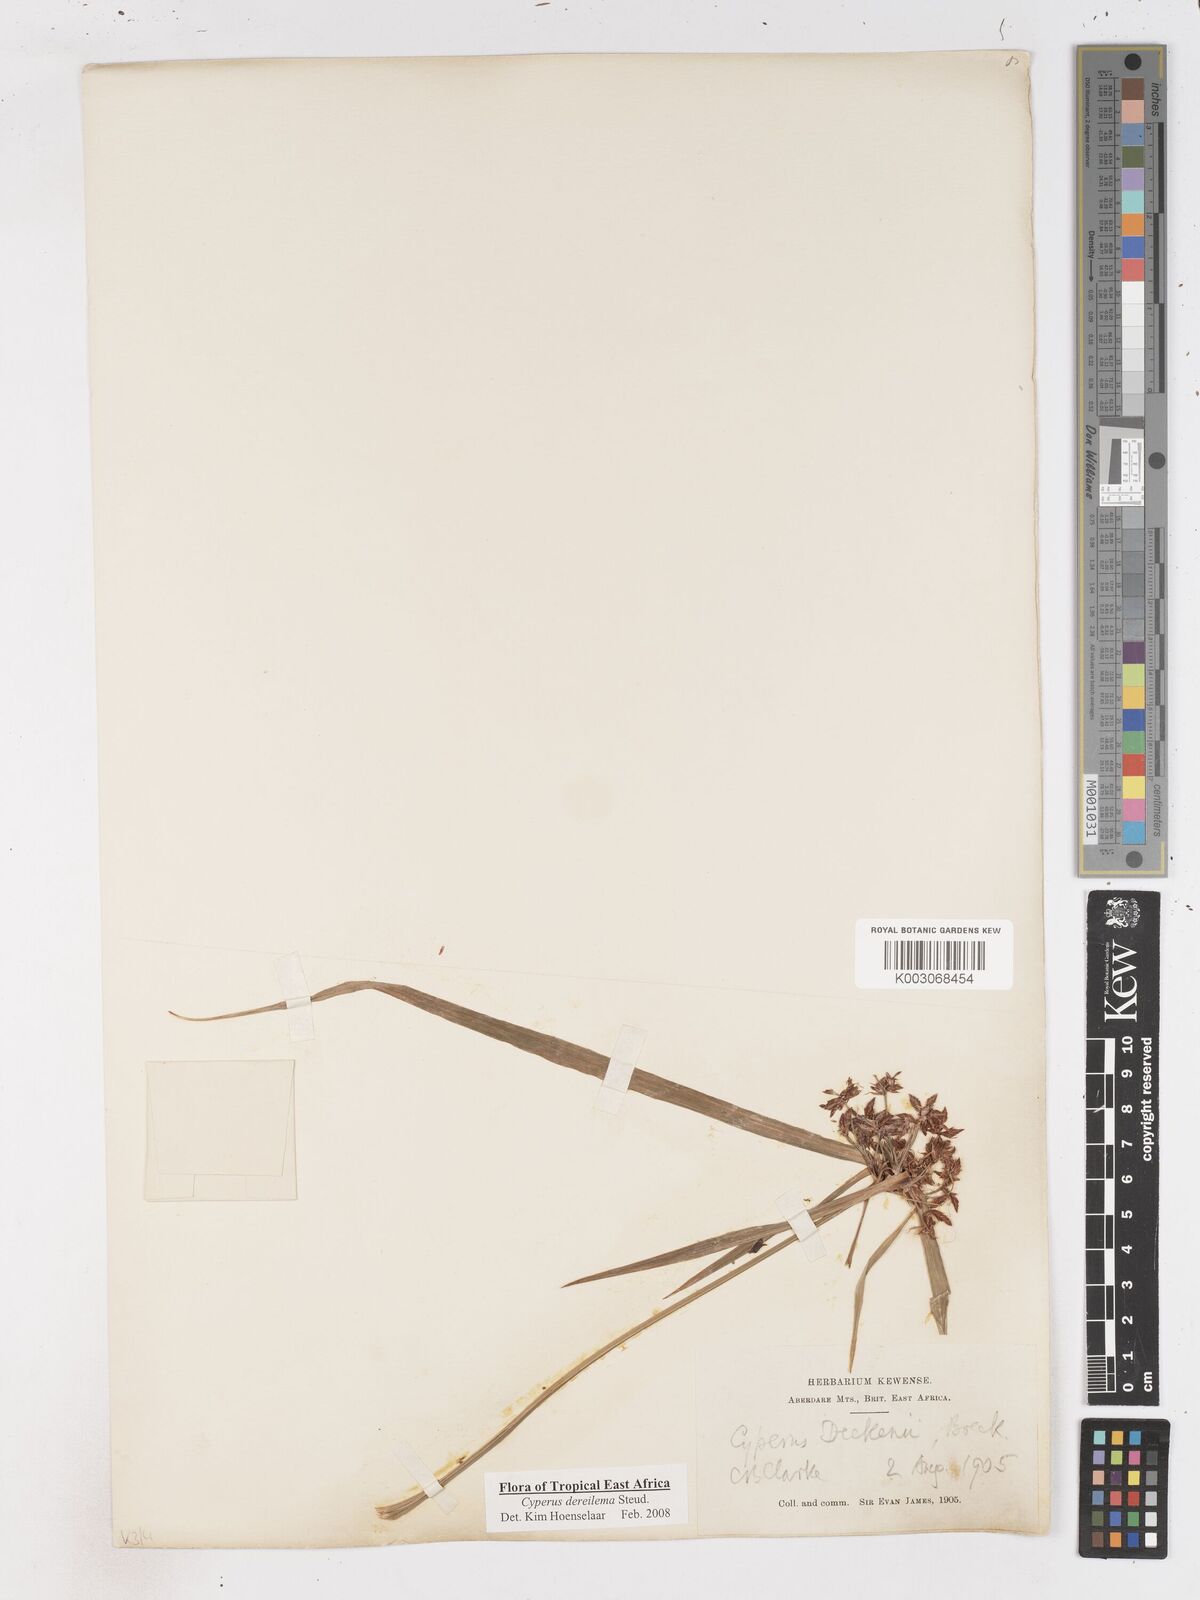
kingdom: Plantae
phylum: Tracheophyta
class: Liliopsida
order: Poales
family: Cyperaceae
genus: Cyperus
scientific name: Cyperus derreilema
